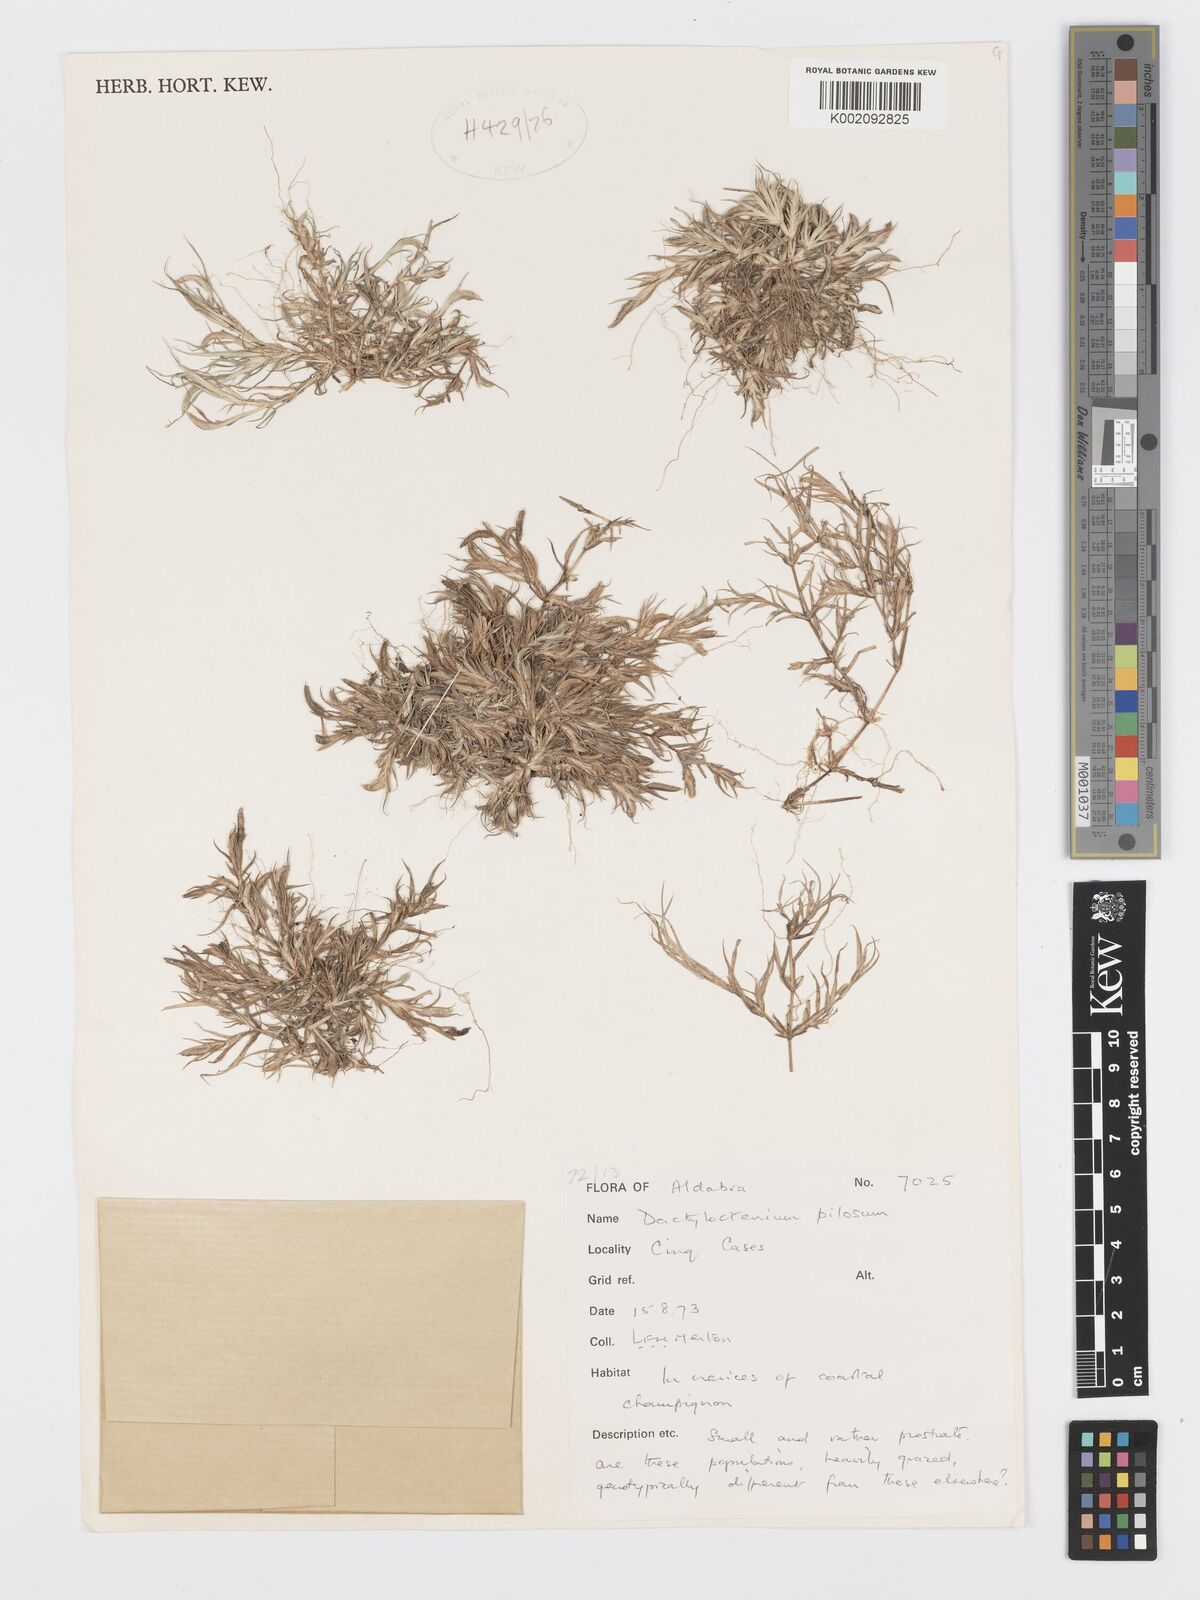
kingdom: Plantae
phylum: Tracheophyta
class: Liliopsida
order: Poales
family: Poaceae
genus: Dactyloctenium
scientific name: Dactyloctenium pilosum
